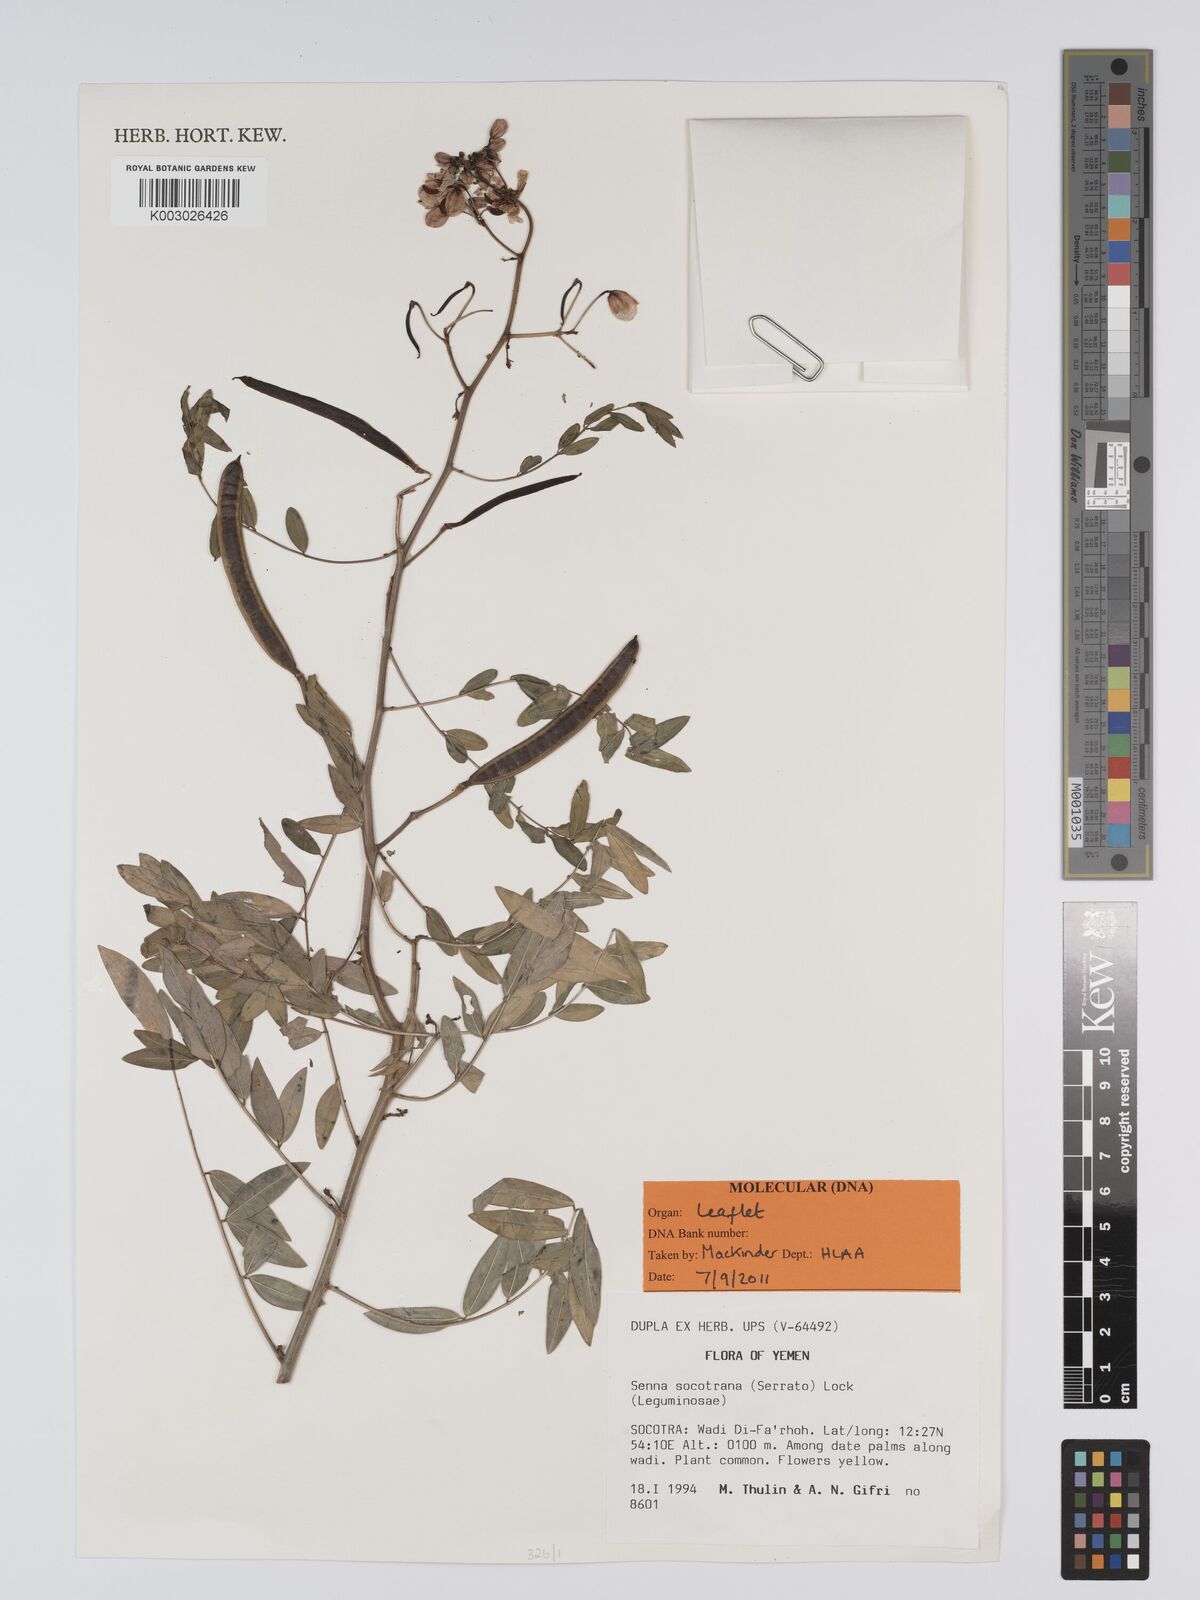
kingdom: Plantae
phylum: Tracheophyta
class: Magnoliopsida
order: Fabales
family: Fabaceae
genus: Senna
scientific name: Senna sophera
